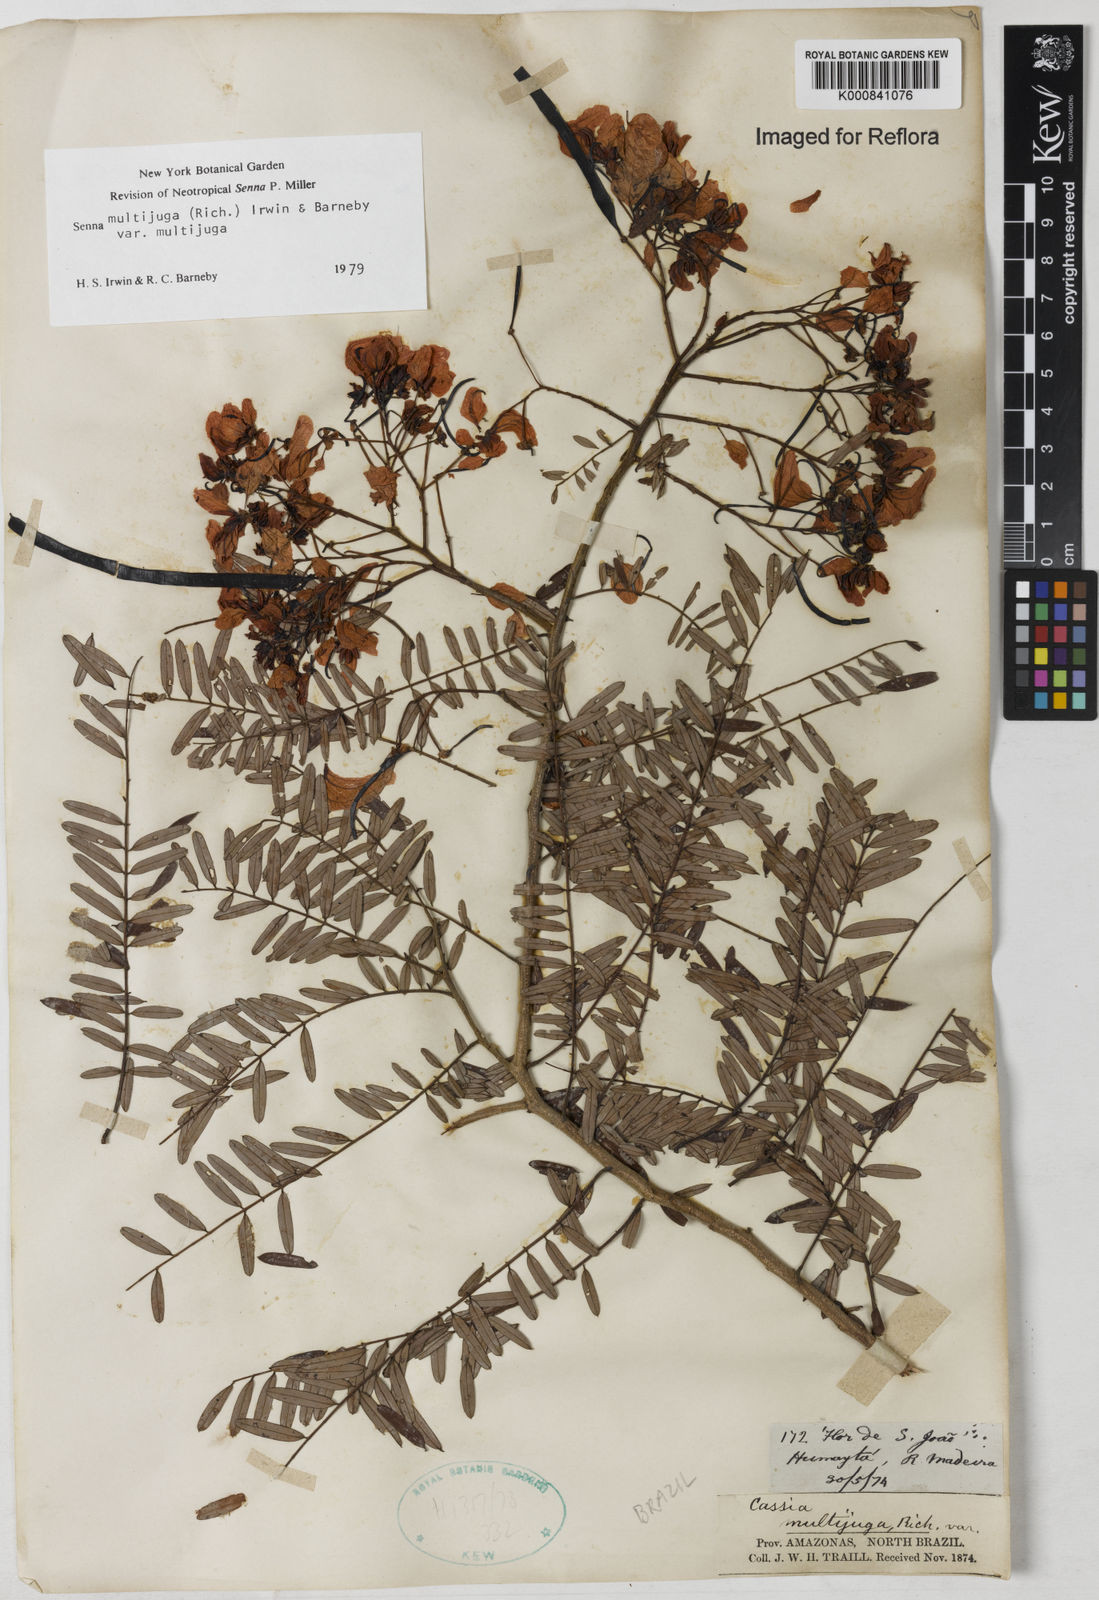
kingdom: Plantae
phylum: Tracheophyta
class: Magnoliopsida
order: Fabales
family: Fabaceae
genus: Senna
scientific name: Senna multijuga
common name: False sicklepod
